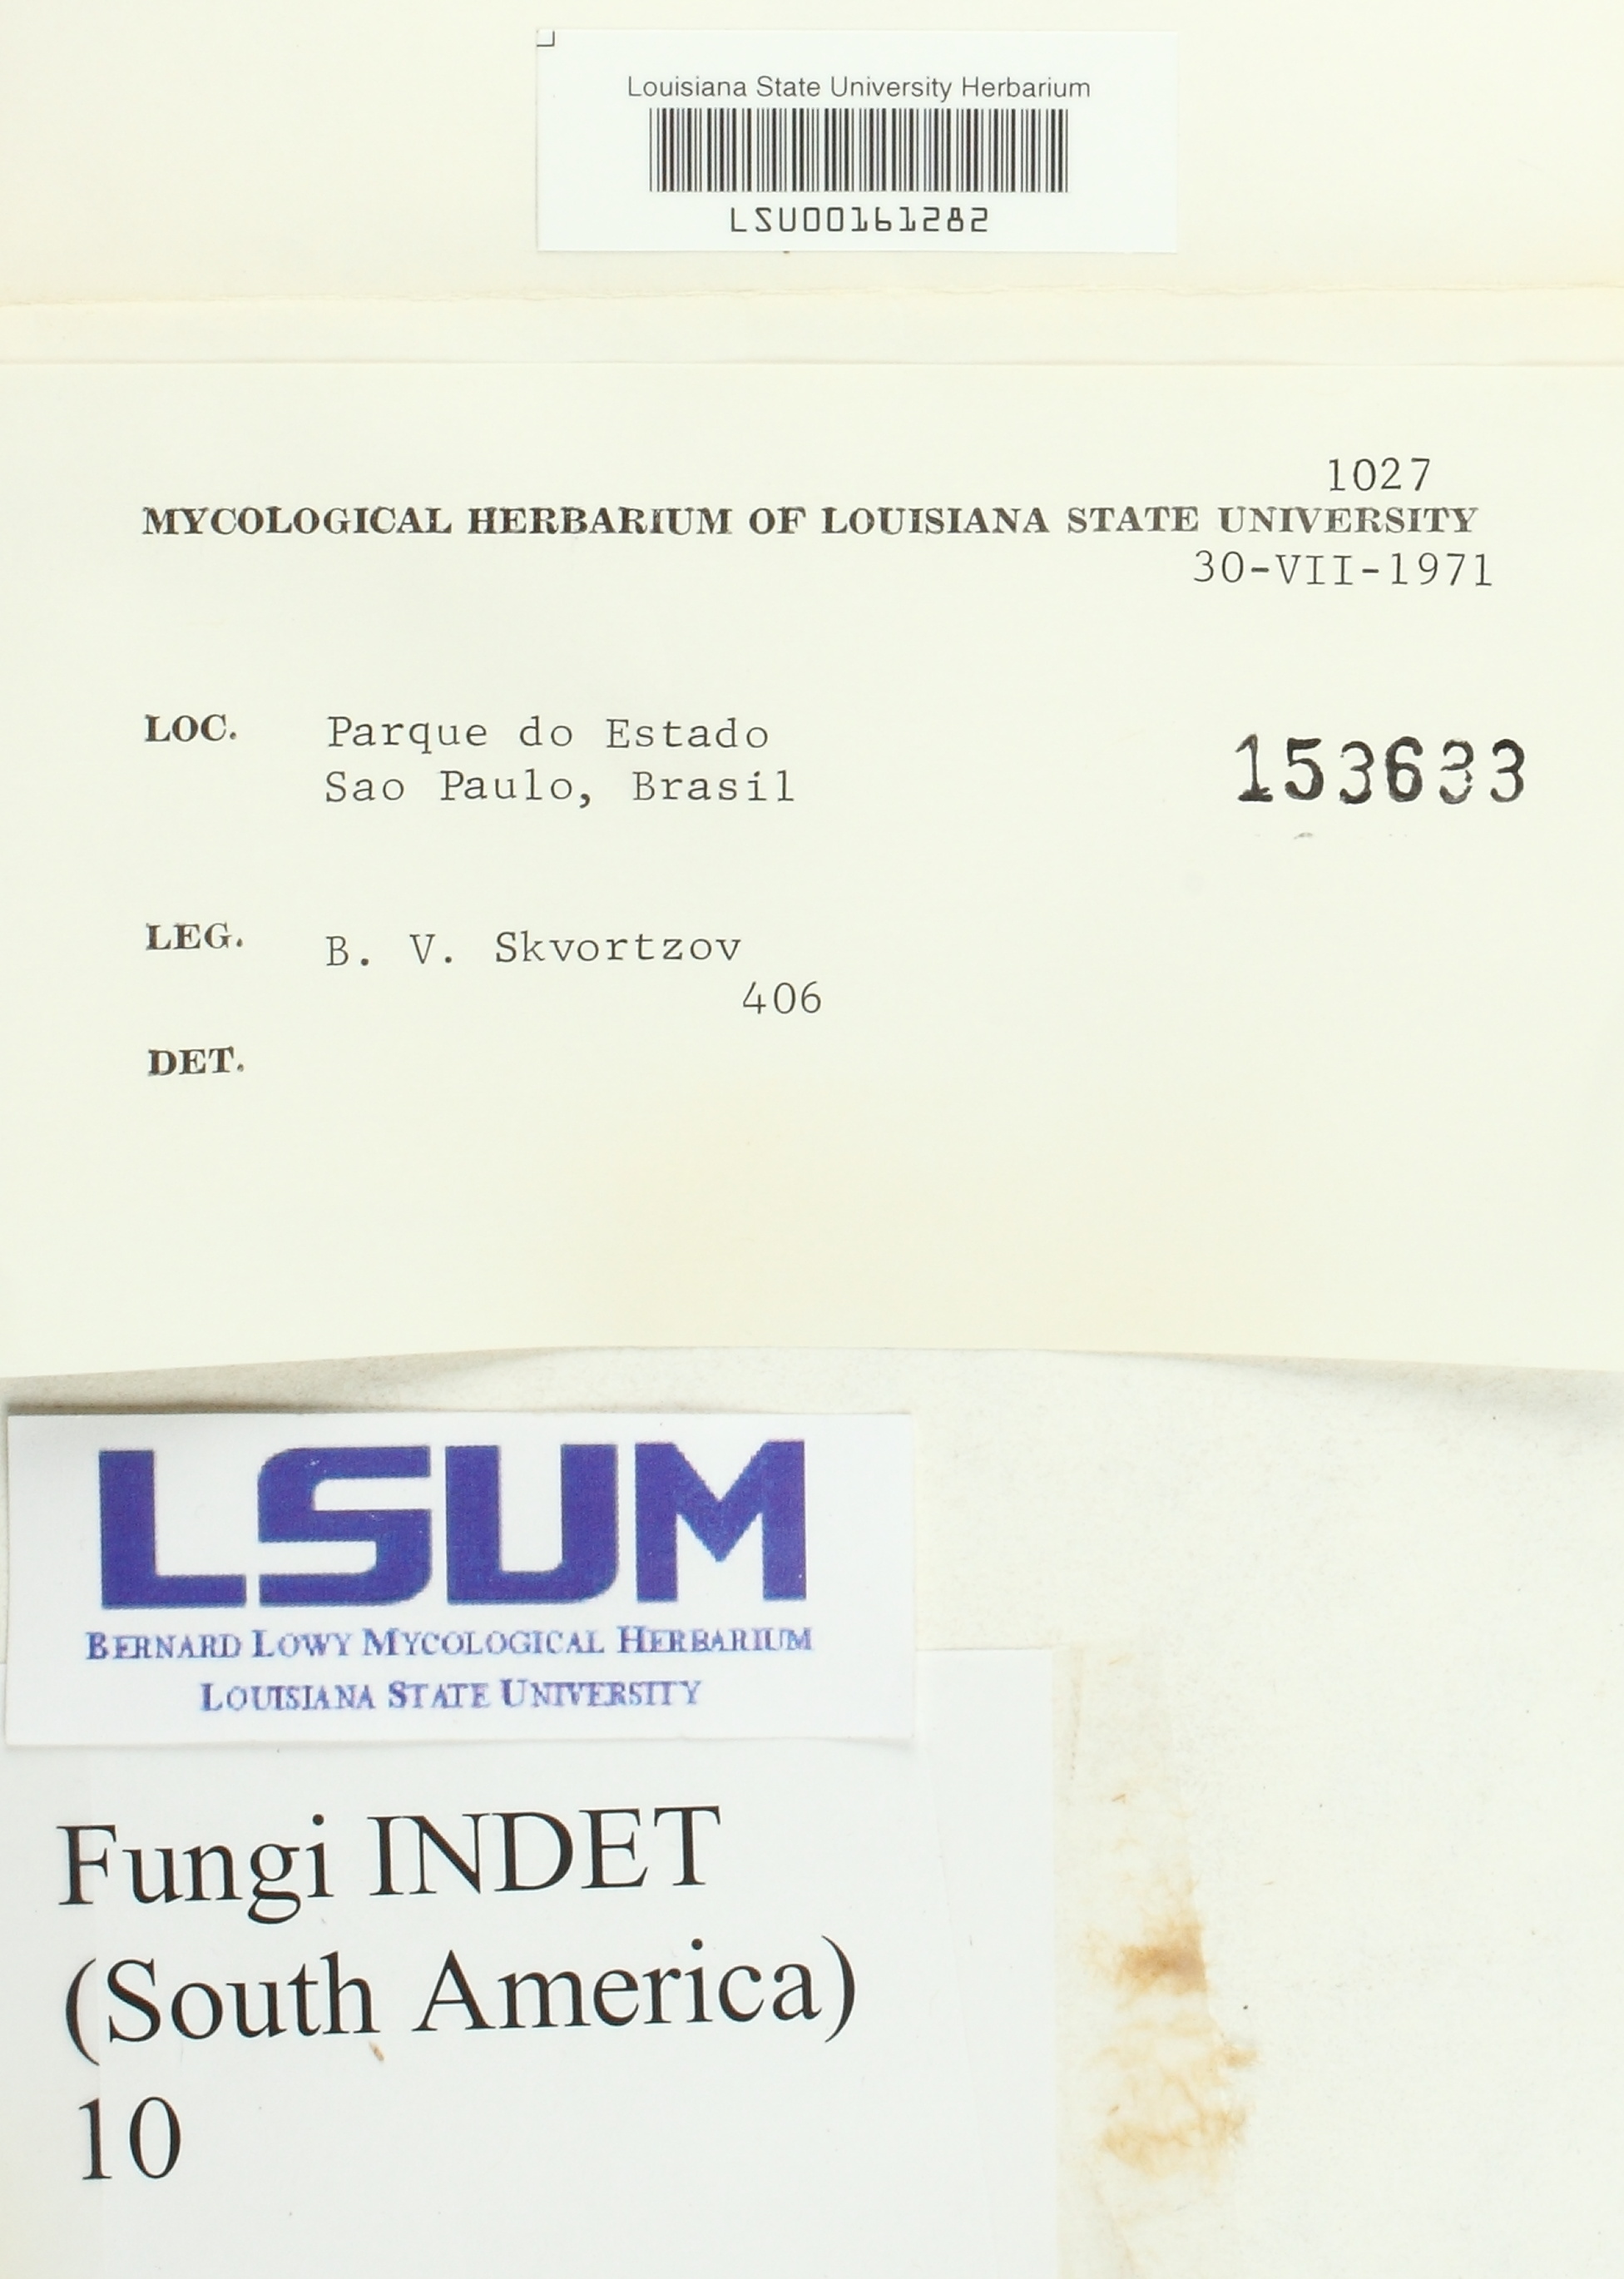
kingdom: Fungi
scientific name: Fungi
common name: Fungi
